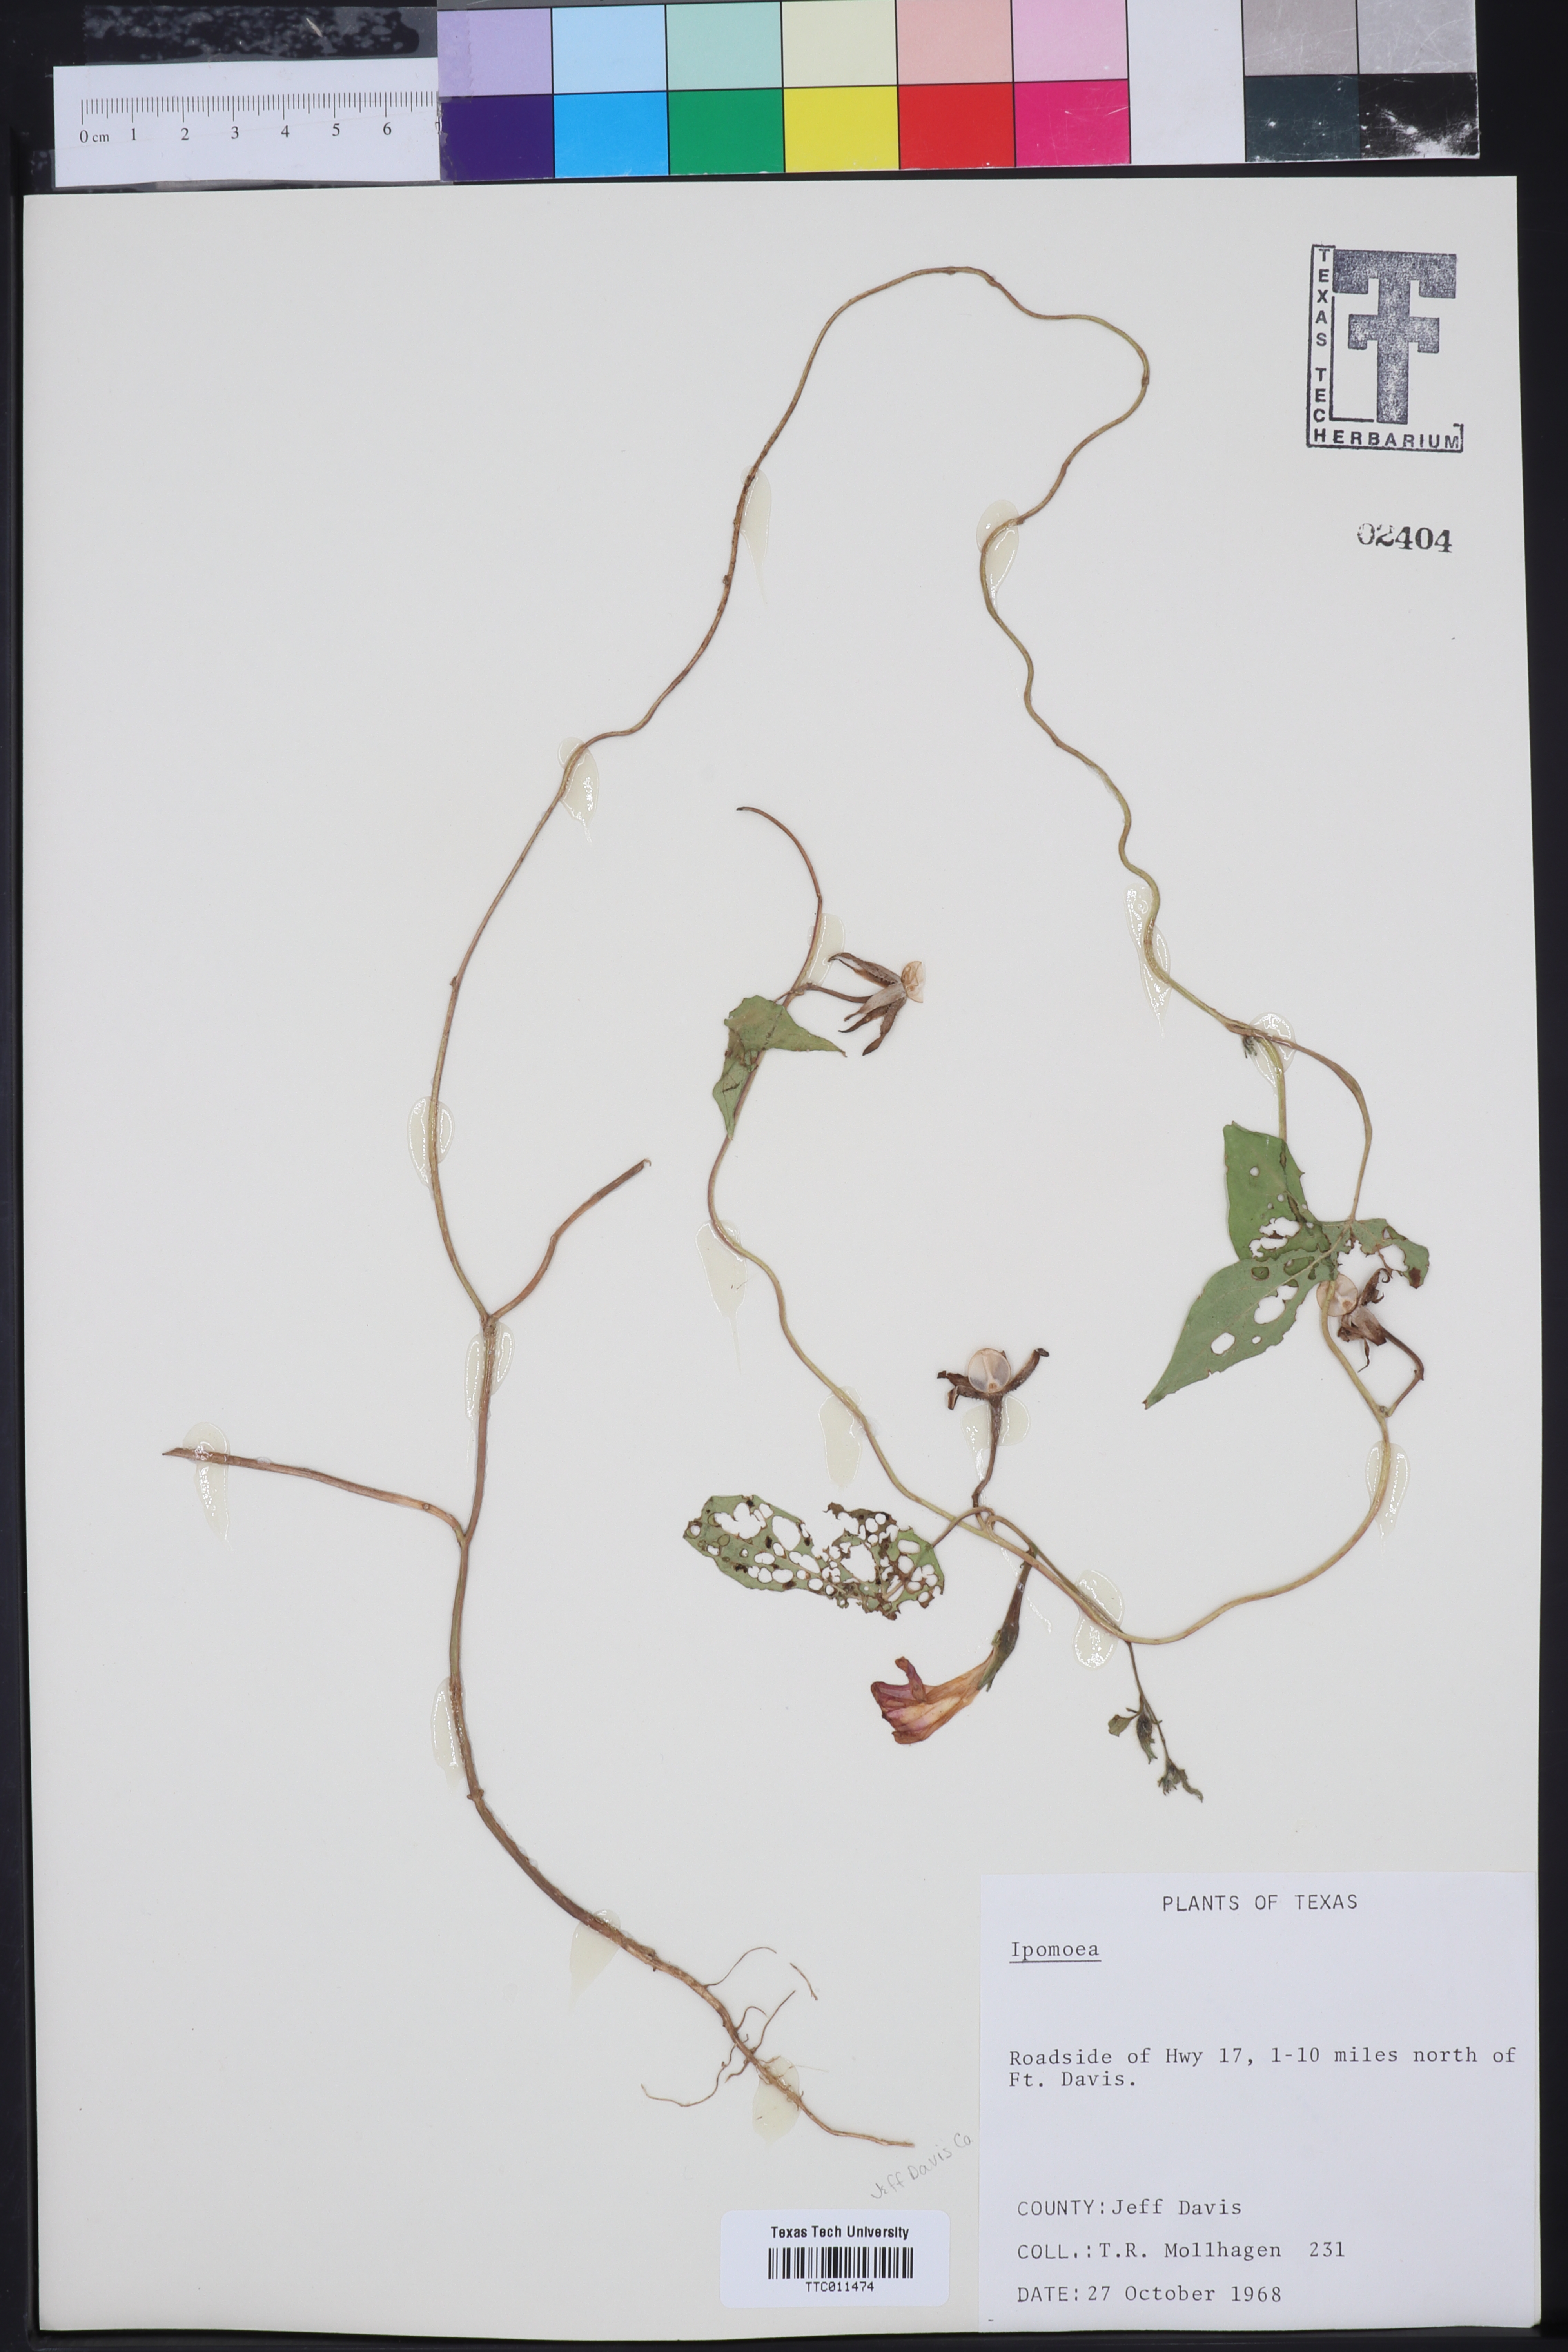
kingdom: Plantae
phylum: Tracheophyta
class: Magnoliopsida
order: Solanales
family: Convolvulaceae
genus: Ipomoea
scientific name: Ipomoea
